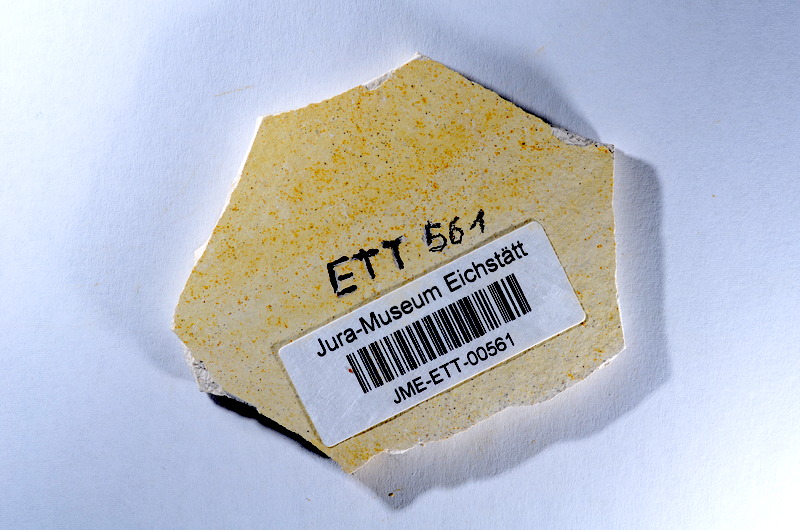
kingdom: Animalia
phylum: Chordata
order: Salmoniformes
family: Orthogonikleithridae
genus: Orthogonikleithrus
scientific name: Orthogonikleithrus hoelli
